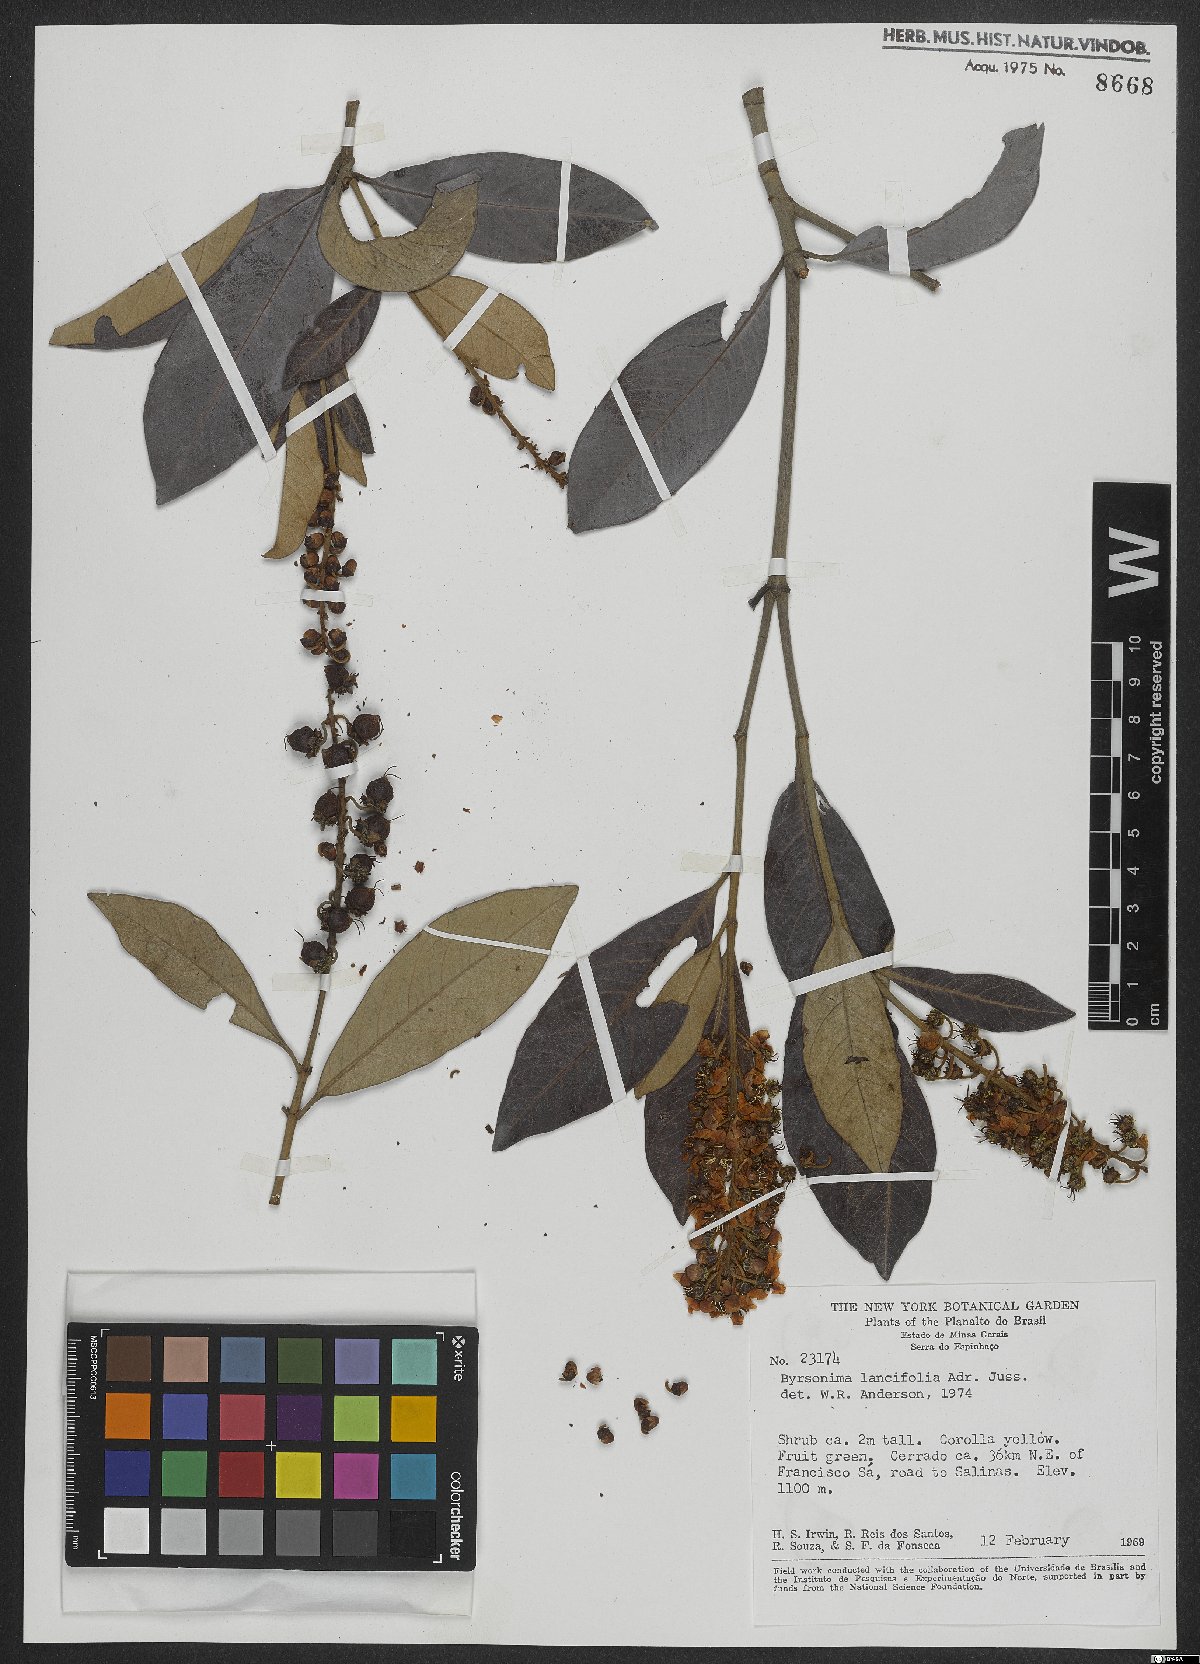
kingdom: Plantae
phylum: Tracheophyta
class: Magnoliopsida
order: Malpighiales
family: Malpighiaceae
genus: Byrsonima
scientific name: Byrsonima lancifolia
